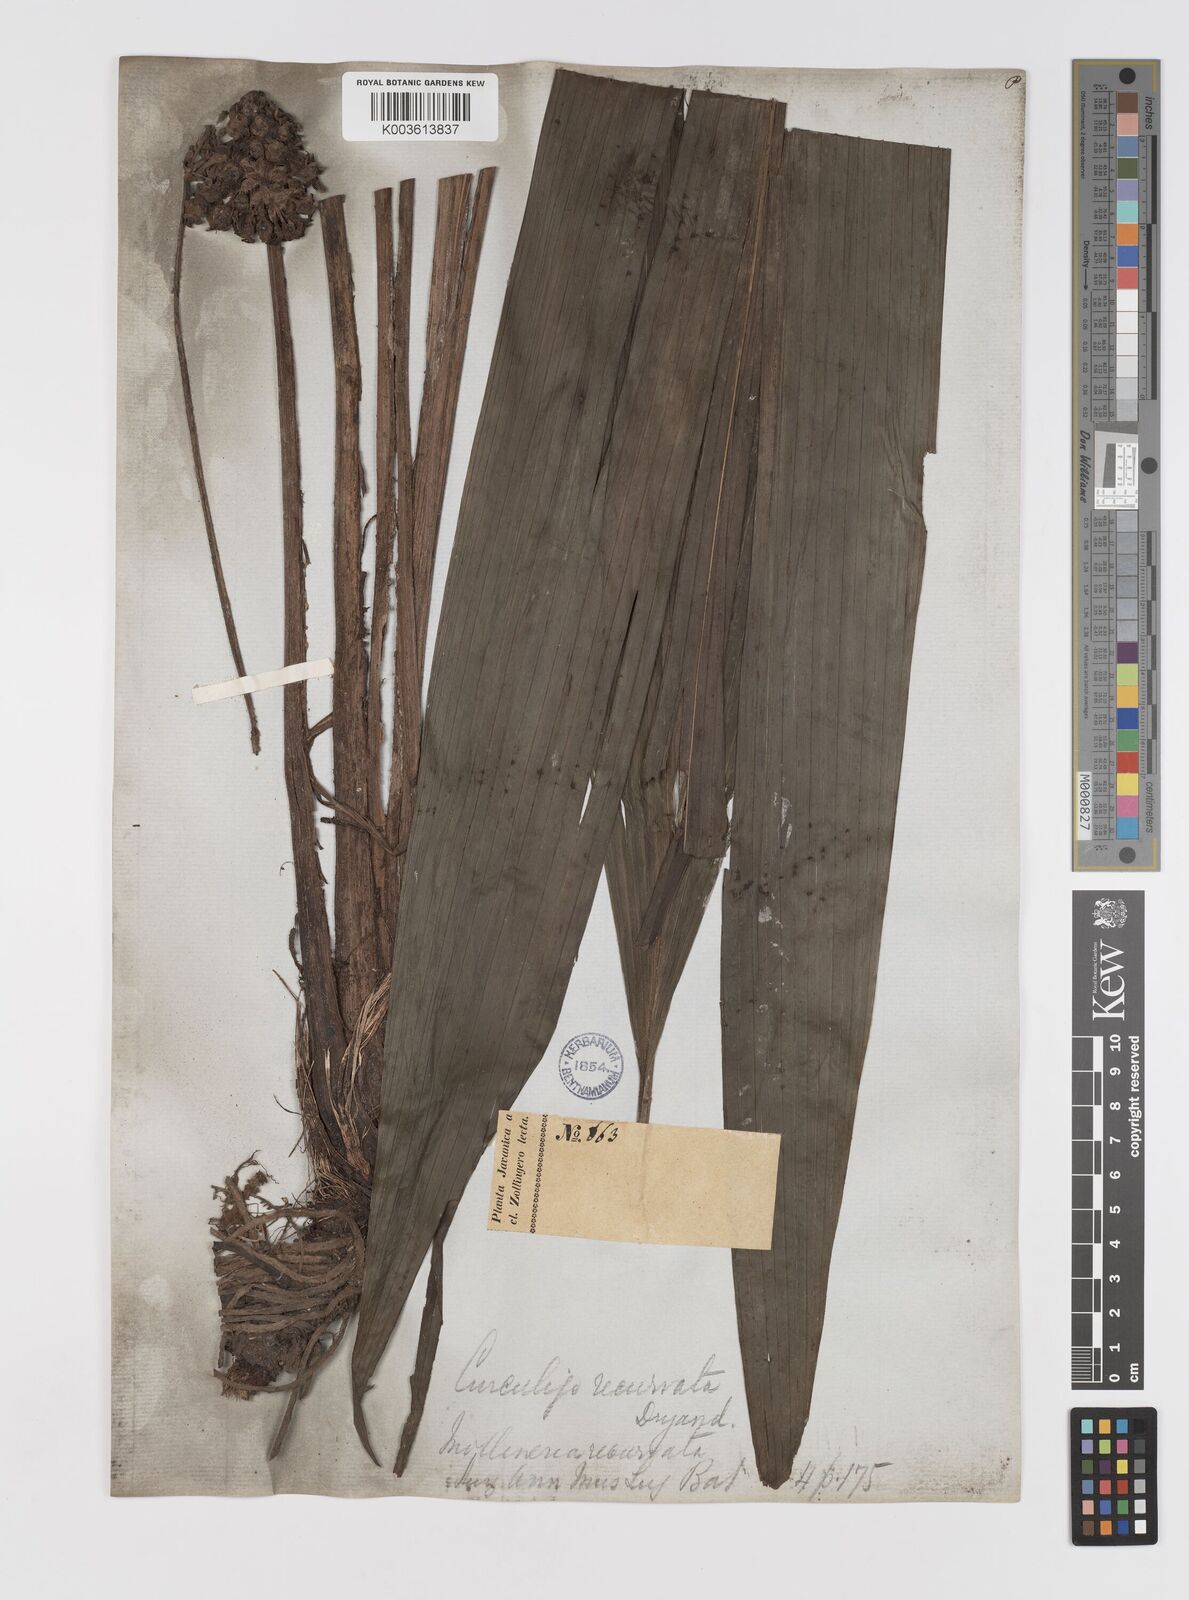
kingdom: Plantae
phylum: Tracheophyta
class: Liliopsida
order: Asparagales
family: Hypoxidaceae
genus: Curculigo
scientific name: Curculigo capitulata
